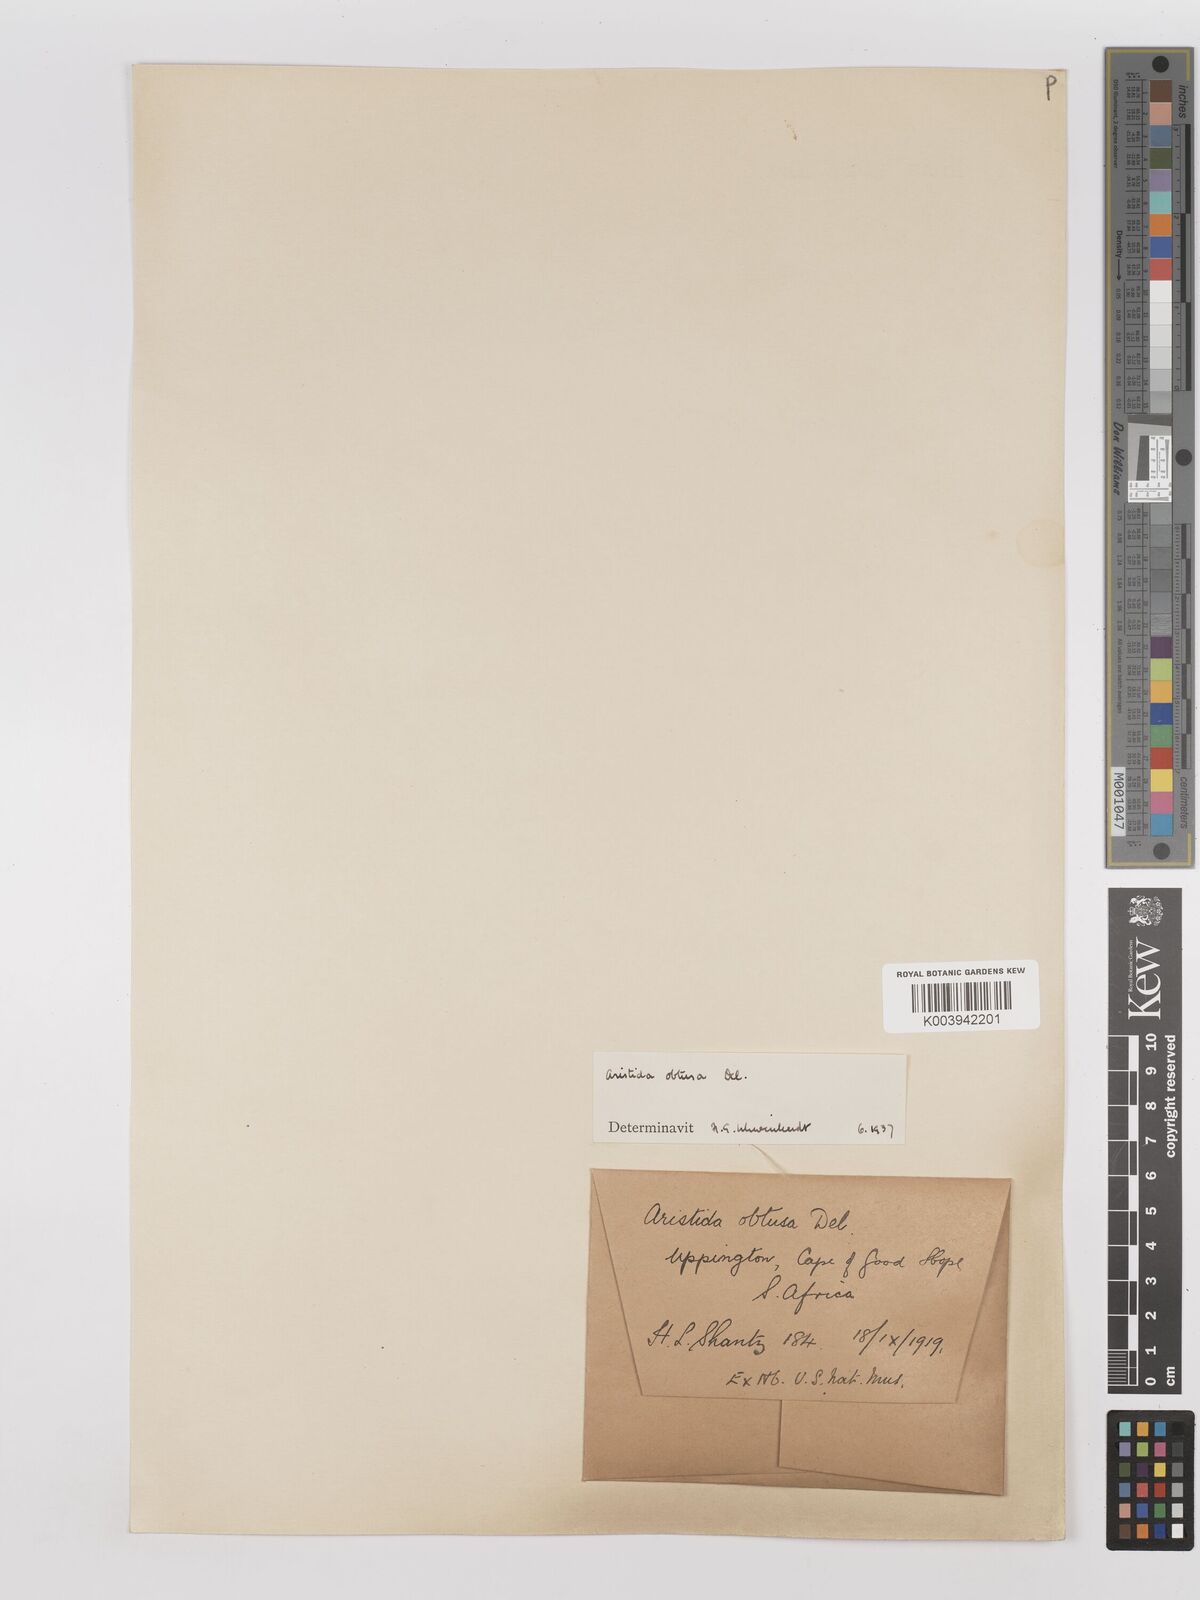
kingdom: Plantae
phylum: Tracheophyta
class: Liliopsida
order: Poales
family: Poaceae
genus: Stipagrostis
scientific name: Stipagrostis obtusa
